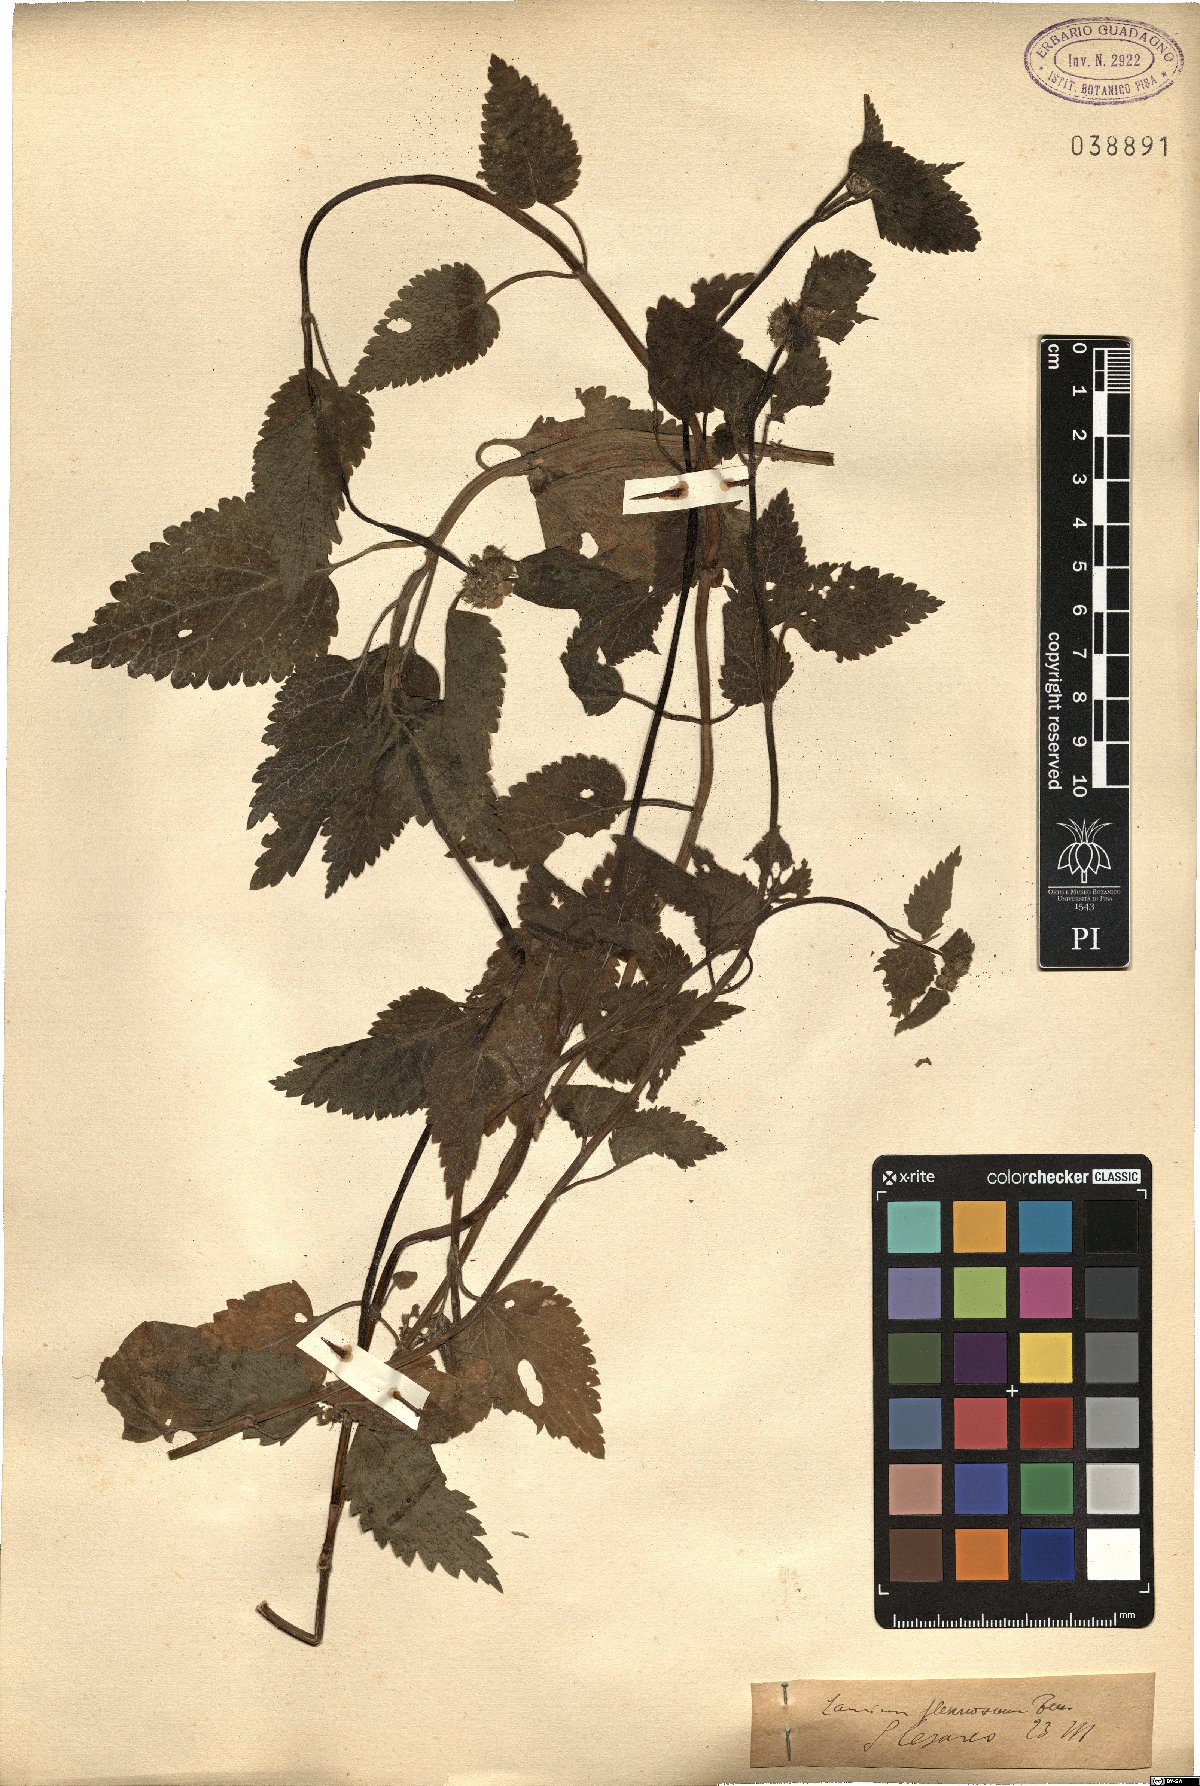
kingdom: Plantae
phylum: Tracheophyta
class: Magnoliopsida
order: Lamiales
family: Lamiaceae
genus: Lamium
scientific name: Lamium flexuosum
